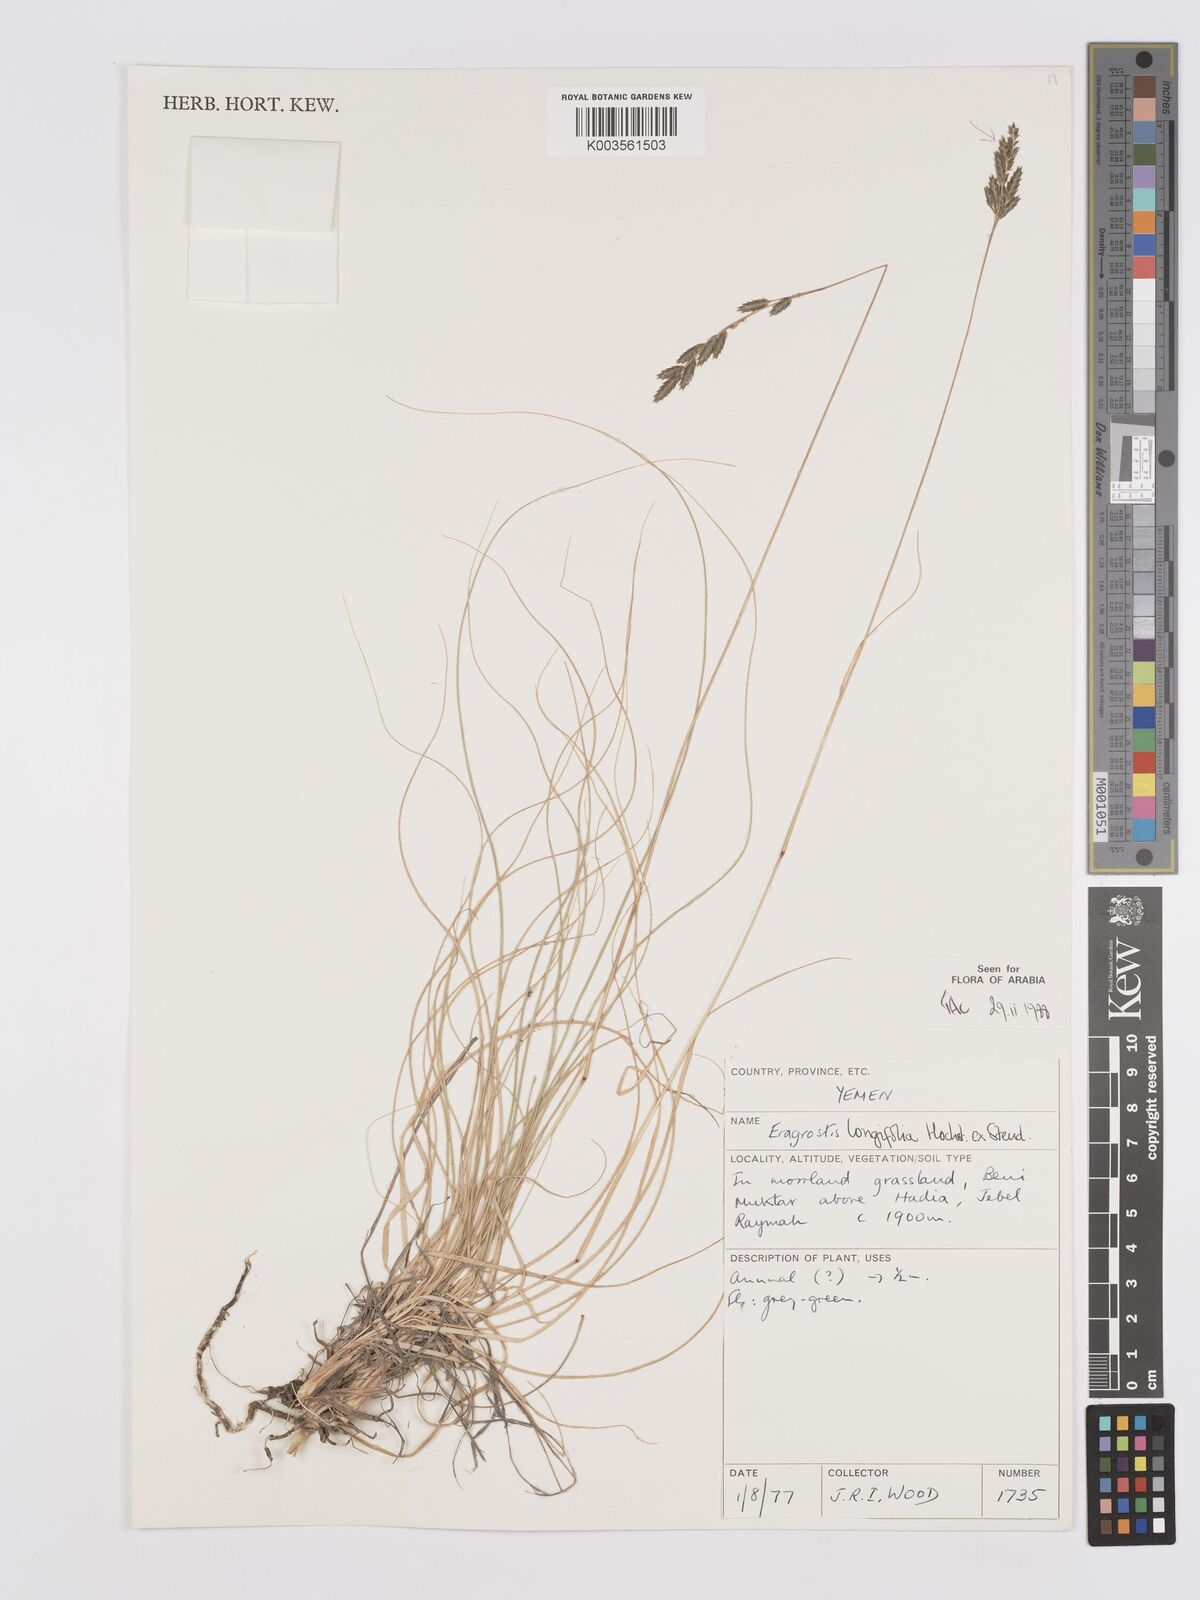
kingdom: Plantae
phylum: Tracheophyta
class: Liliopsida
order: Poales
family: Poaceae
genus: Eragrostis
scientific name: Eragrostis longifolia
